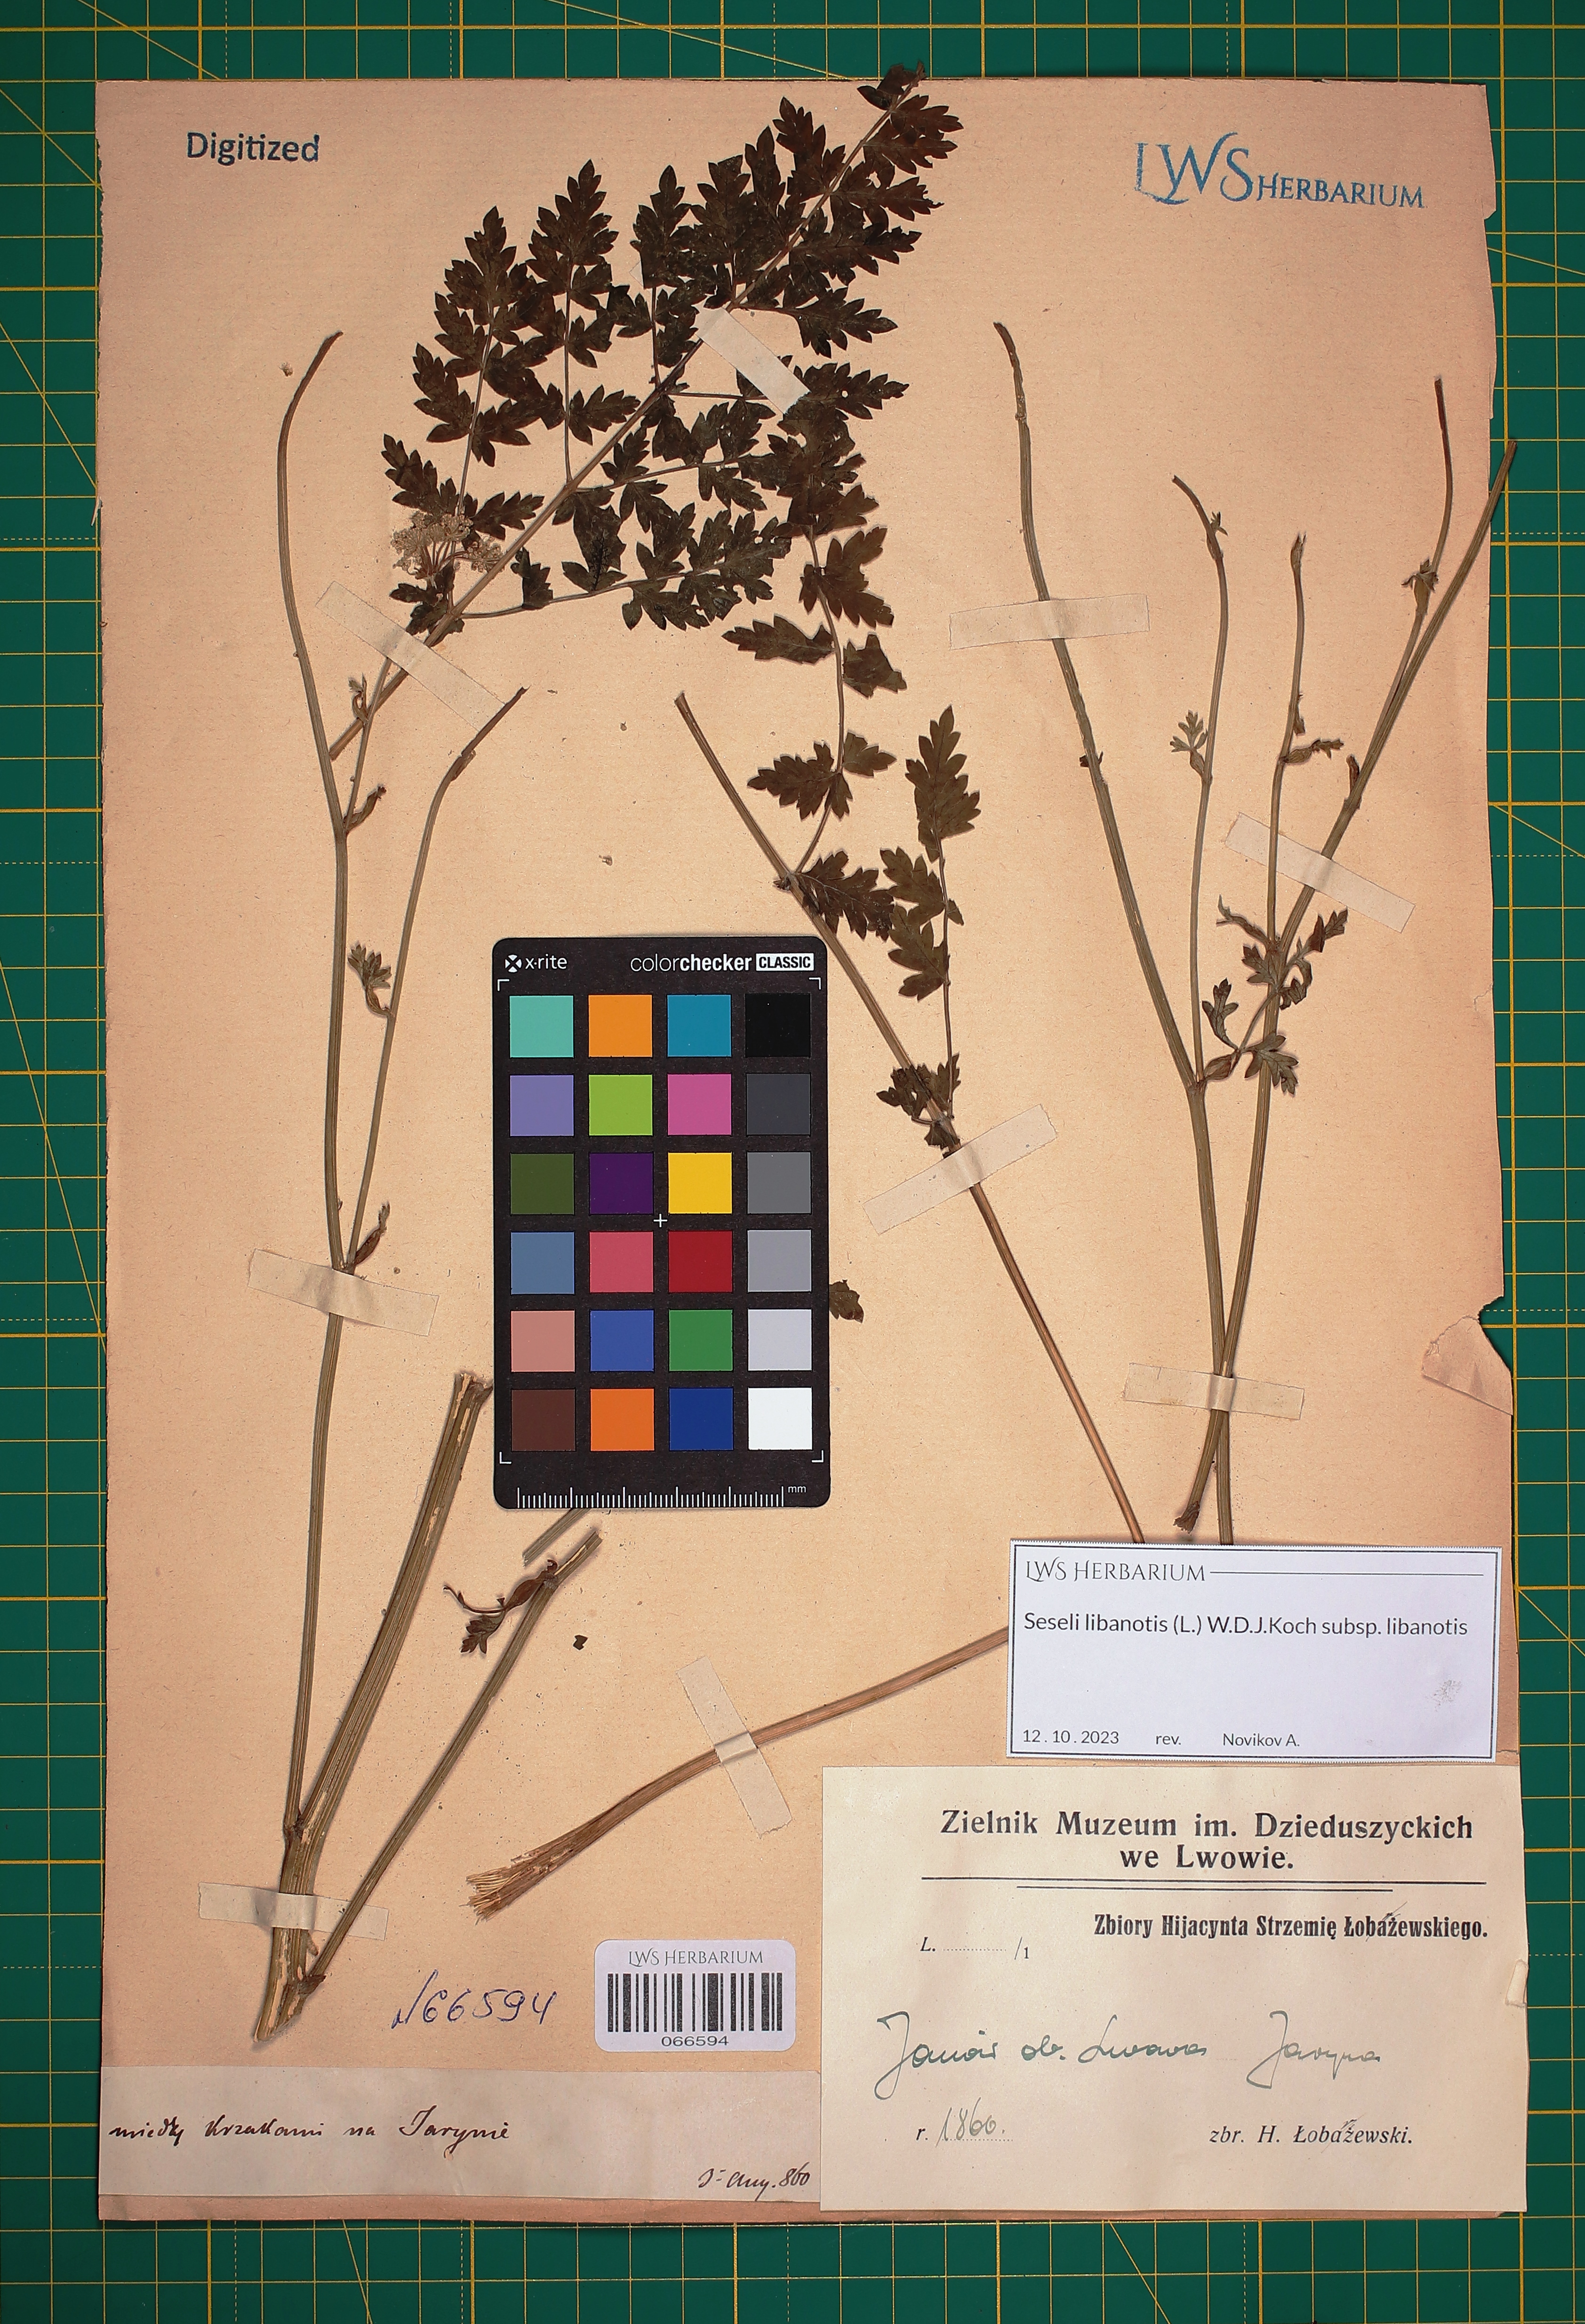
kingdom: Plantae
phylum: Tracheophyta
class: Magnoliopsida
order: Apiales
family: Apiaceae
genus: Seseli
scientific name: Seseli libanotis
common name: Mooncarrot
